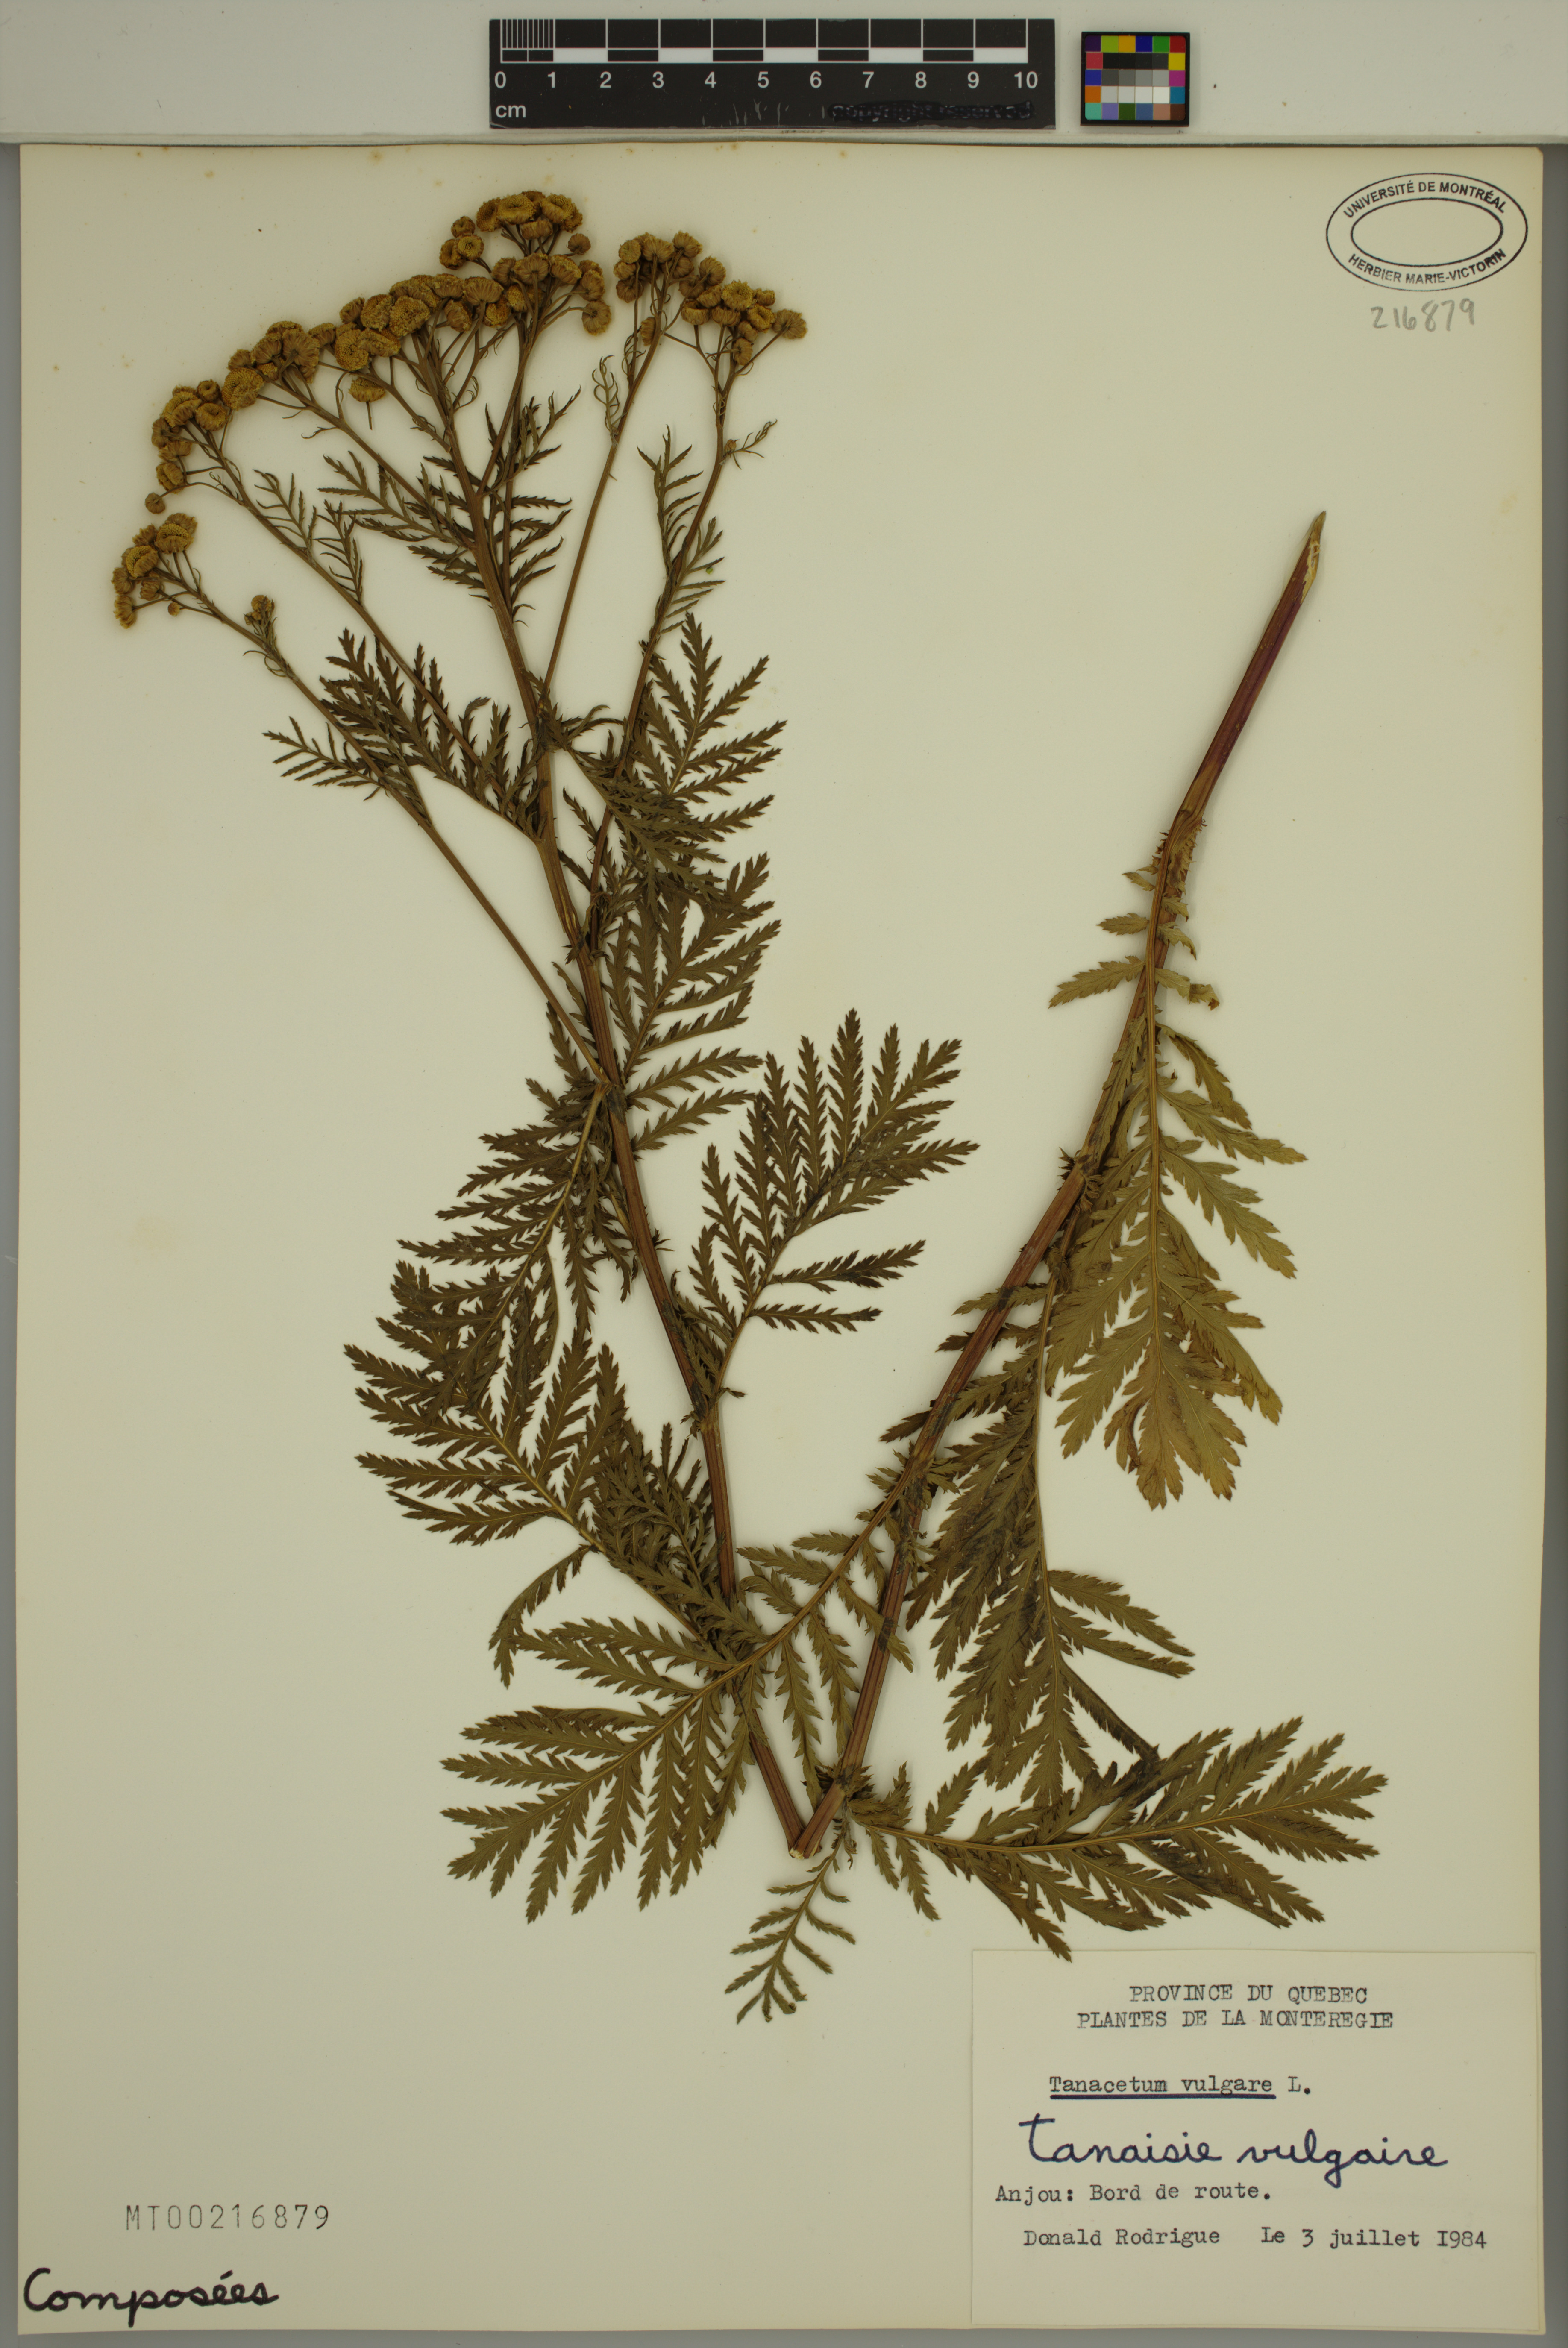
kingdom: Plantae
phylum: Tracheophyta
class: Magnoliopsida
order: Asterales
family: Asteraceae
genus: Tanacetum
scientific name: Tanacetum vulgare
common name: Common tansy
